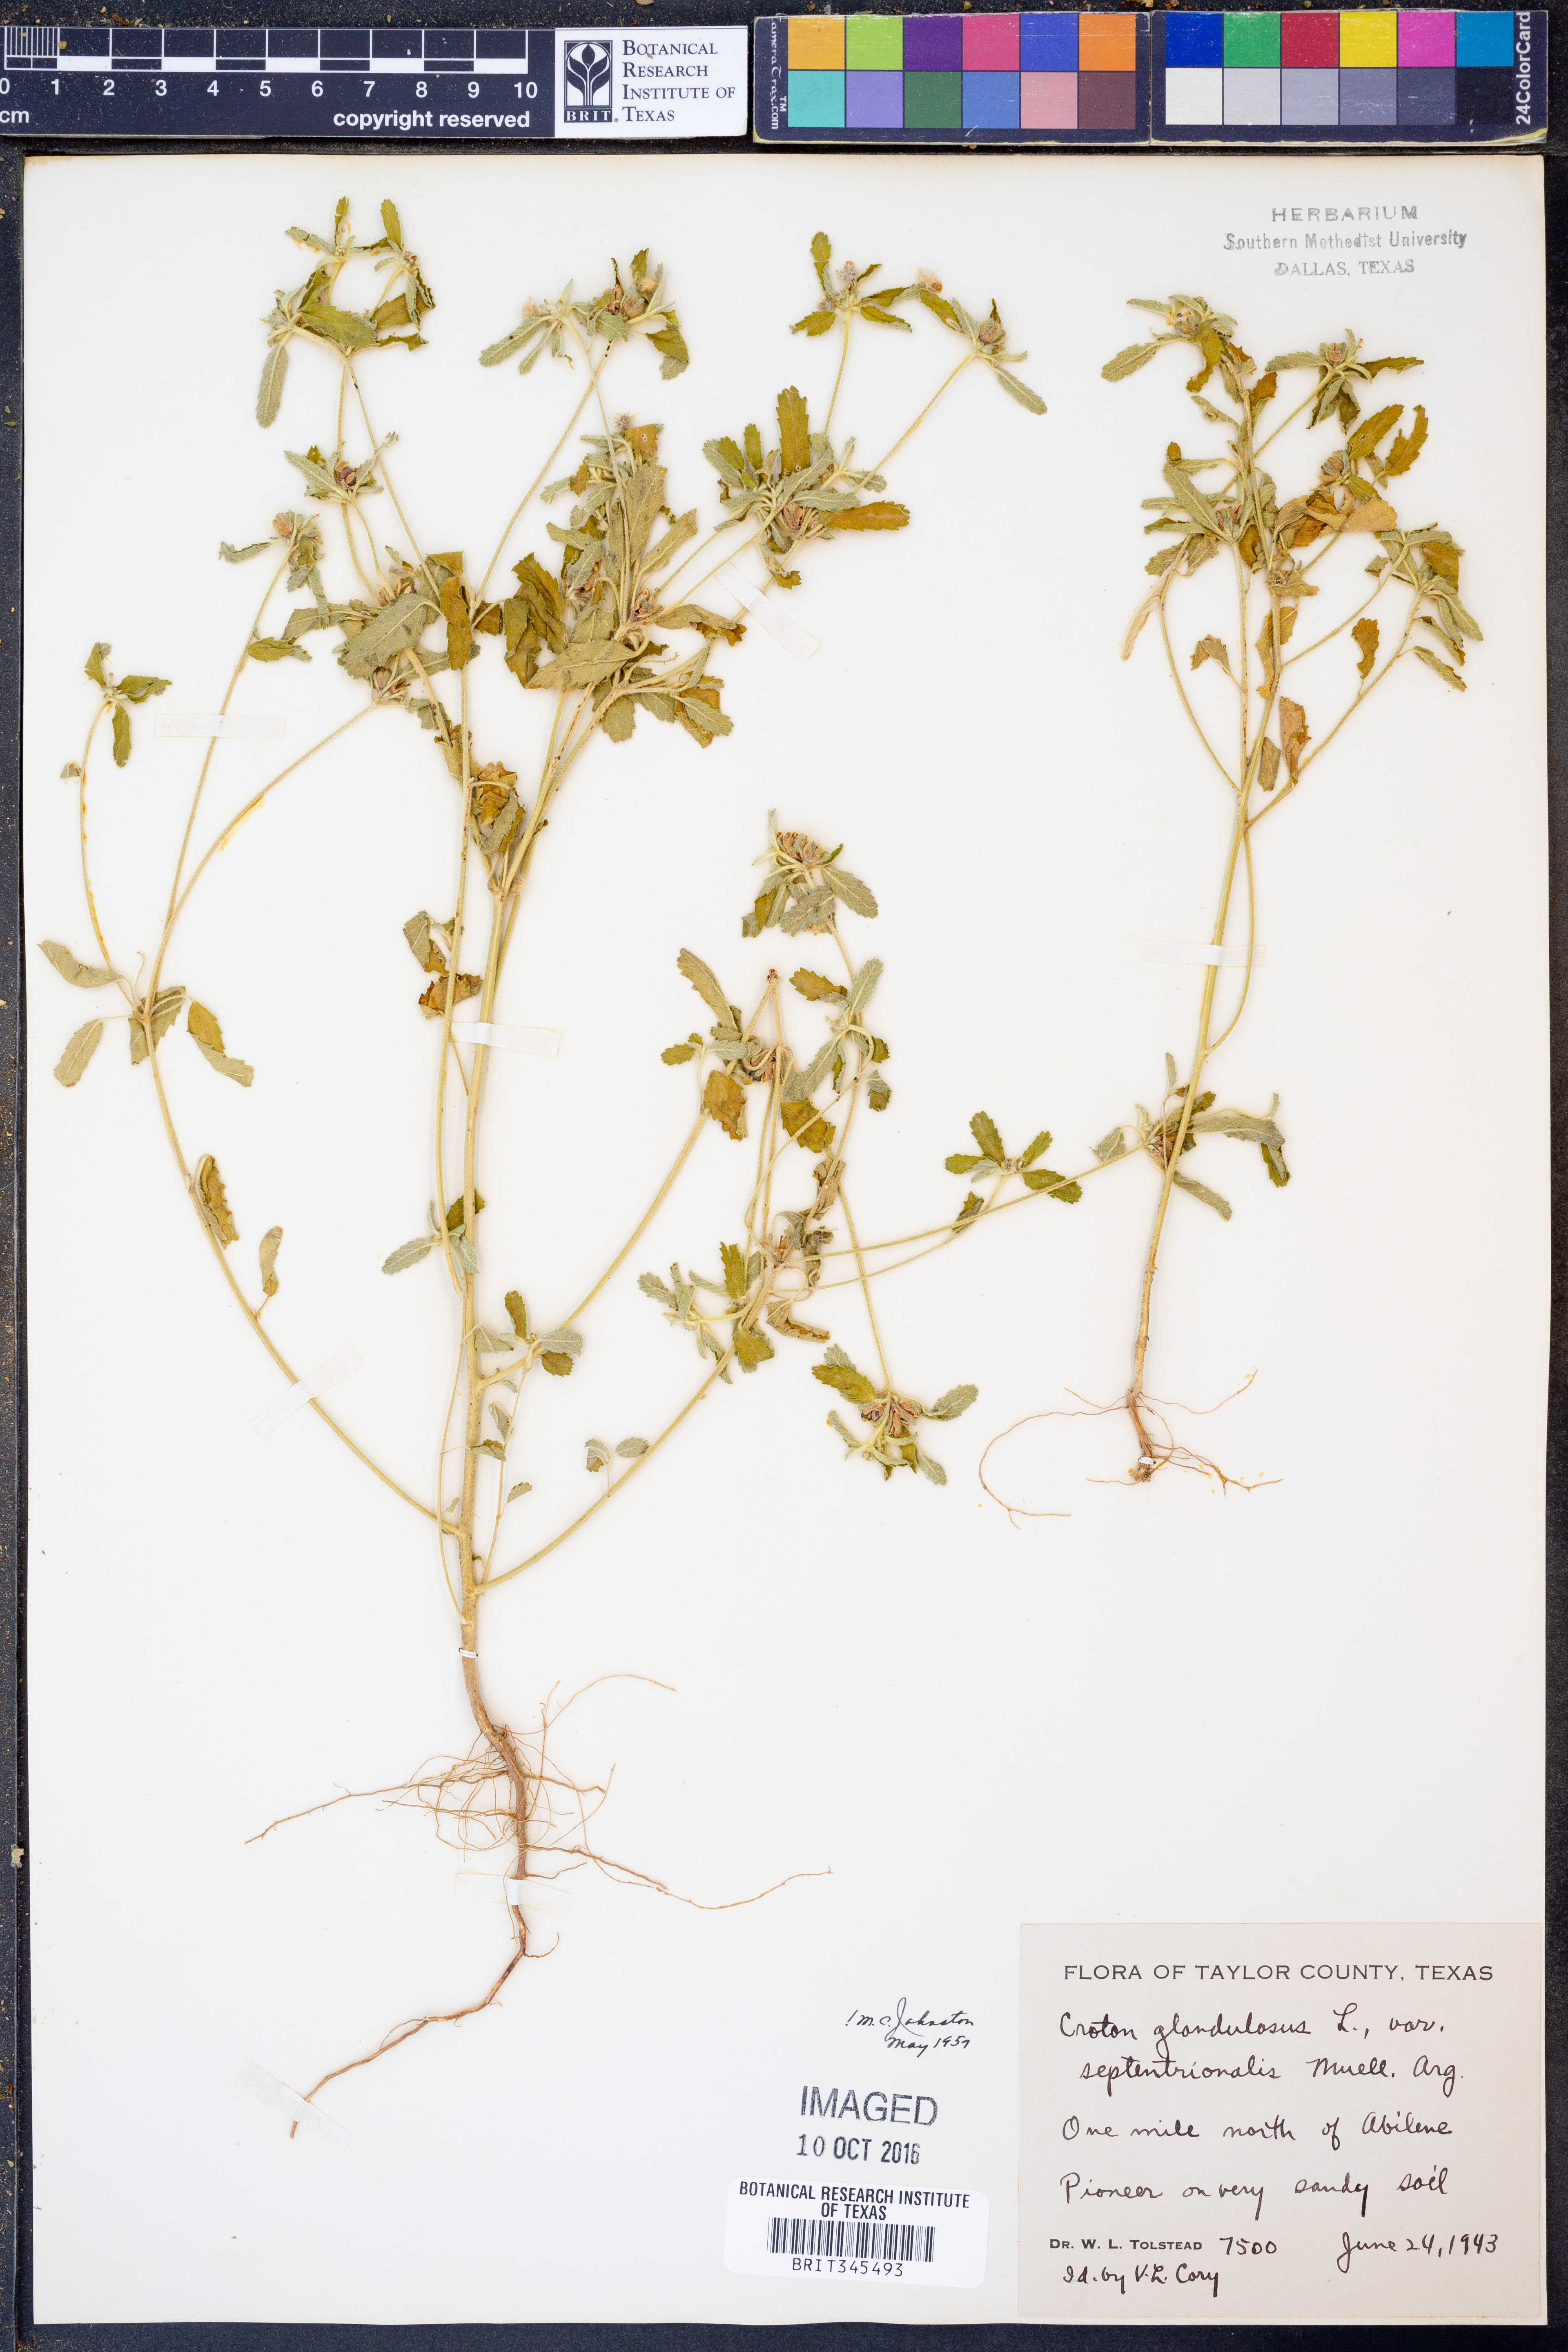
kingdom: Plantae
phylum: Tracheophyta
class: Magnoliopsida
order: Malpighiales
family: Euphorbiaceae
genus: Croton
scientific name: Croton glandulosus
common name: Tropic croton
